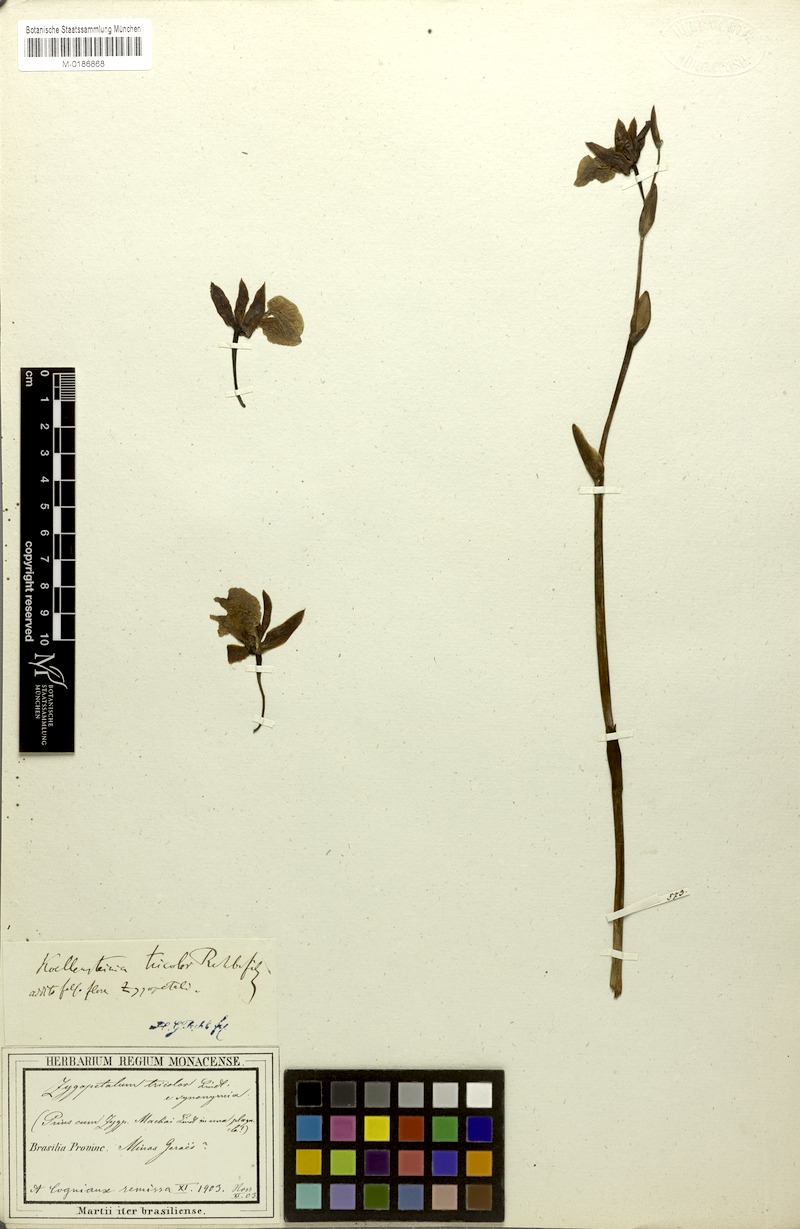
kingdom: Plantae
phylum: Tracheophyta
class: Liliopsida
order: Asparagales
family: Orchidaceae
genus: Koellensteinia
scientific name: Koellensteinia tricolor
